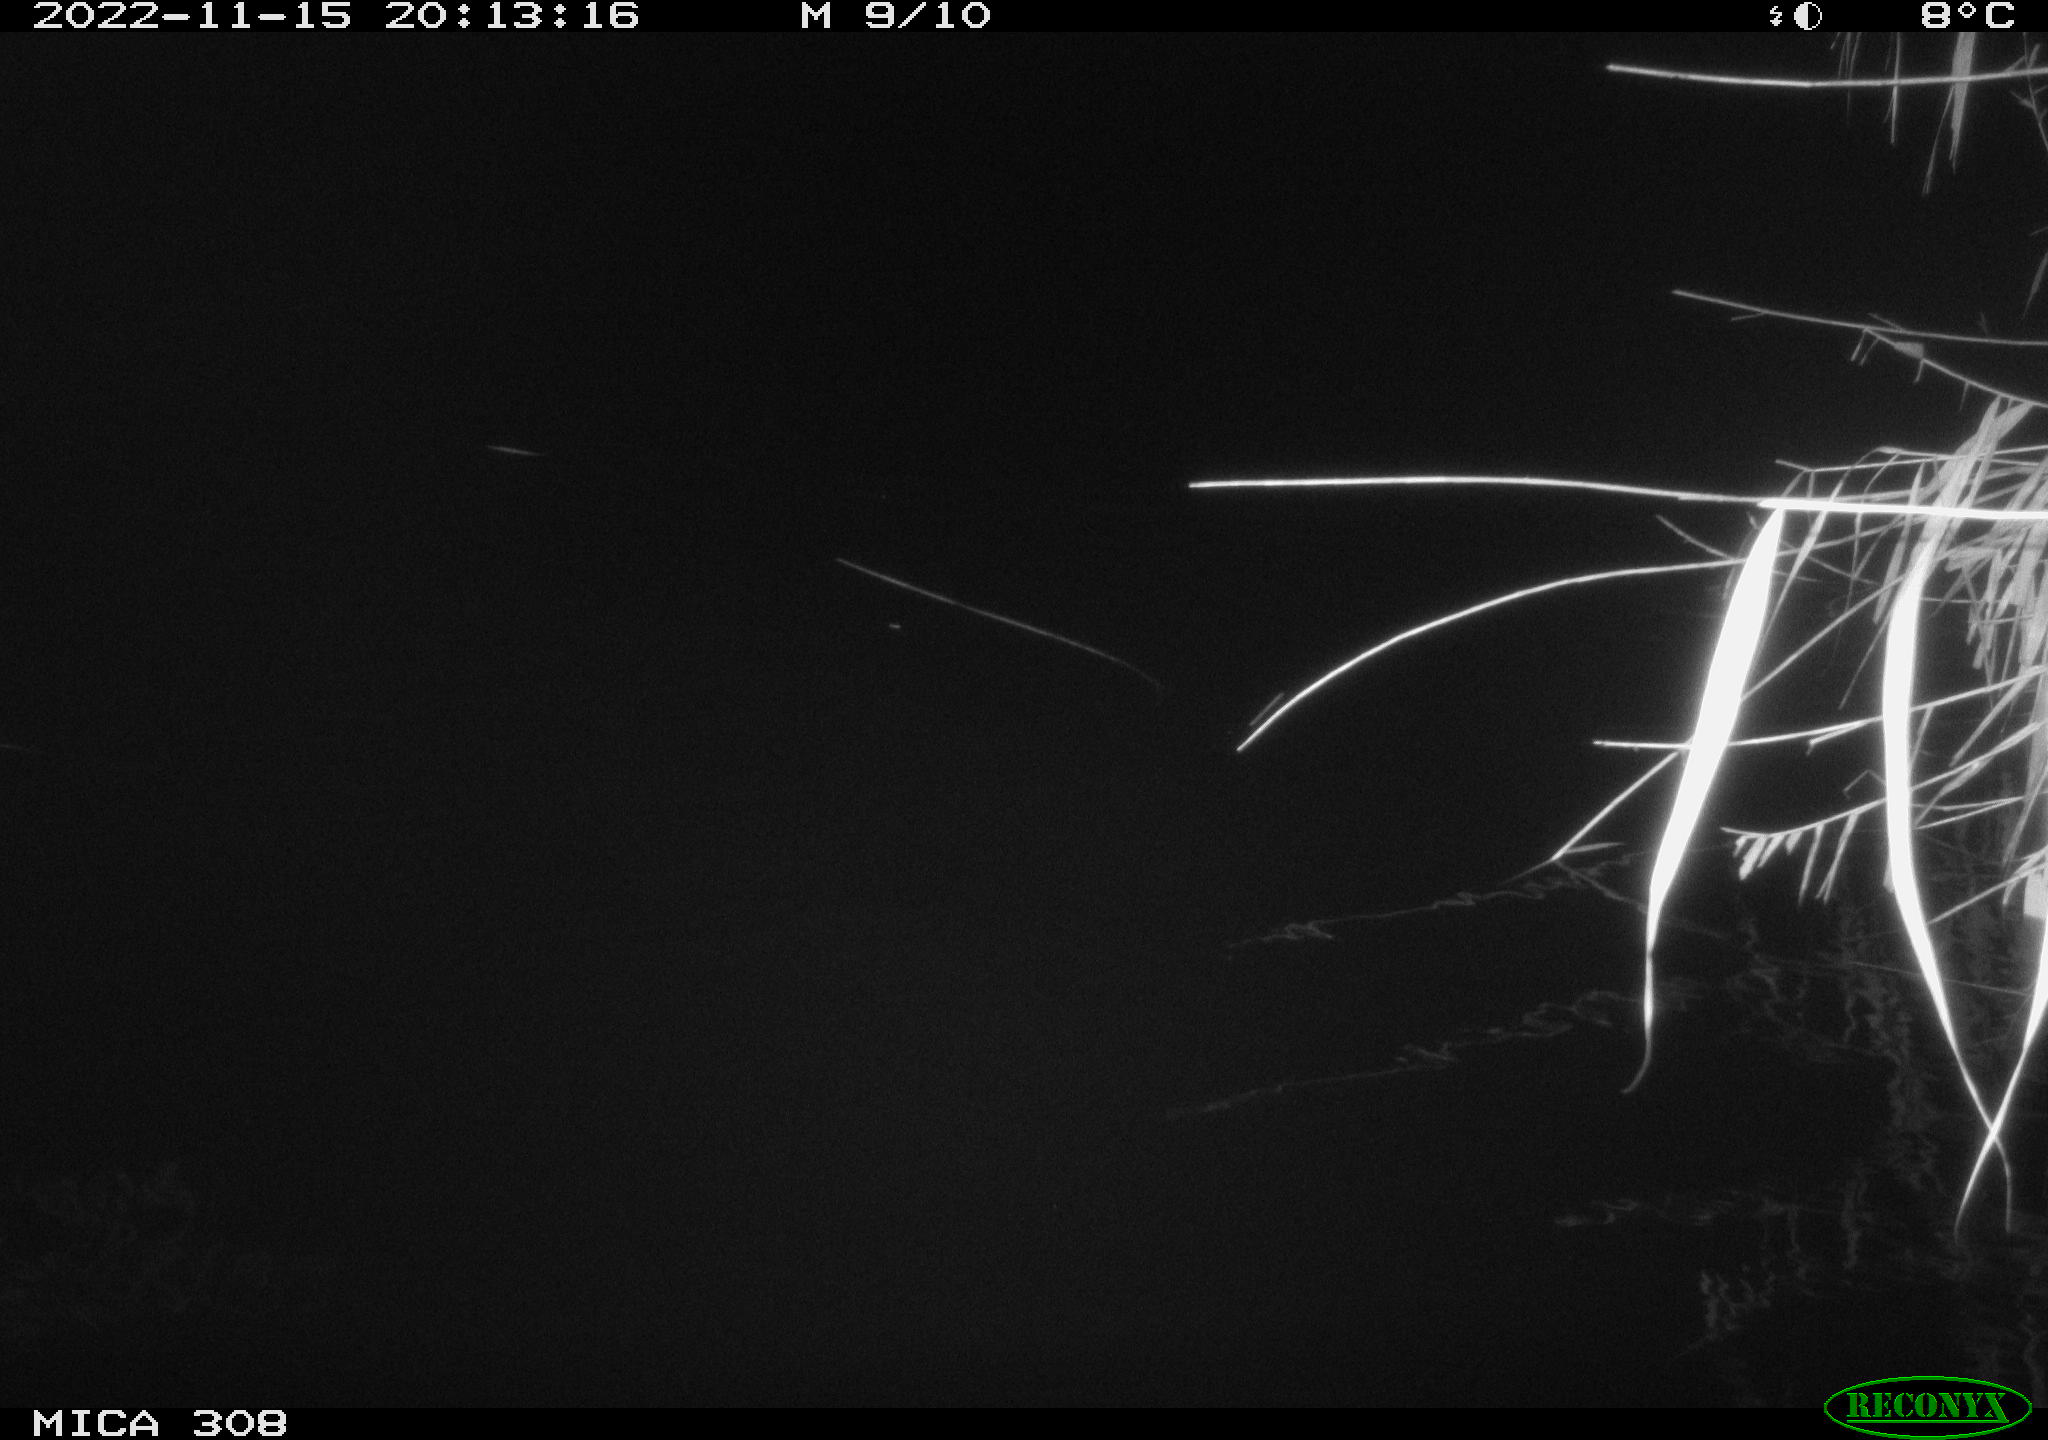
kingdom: Animalia
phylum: Chordata
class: Mammalia
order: Rodentia
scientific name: Rodentia
